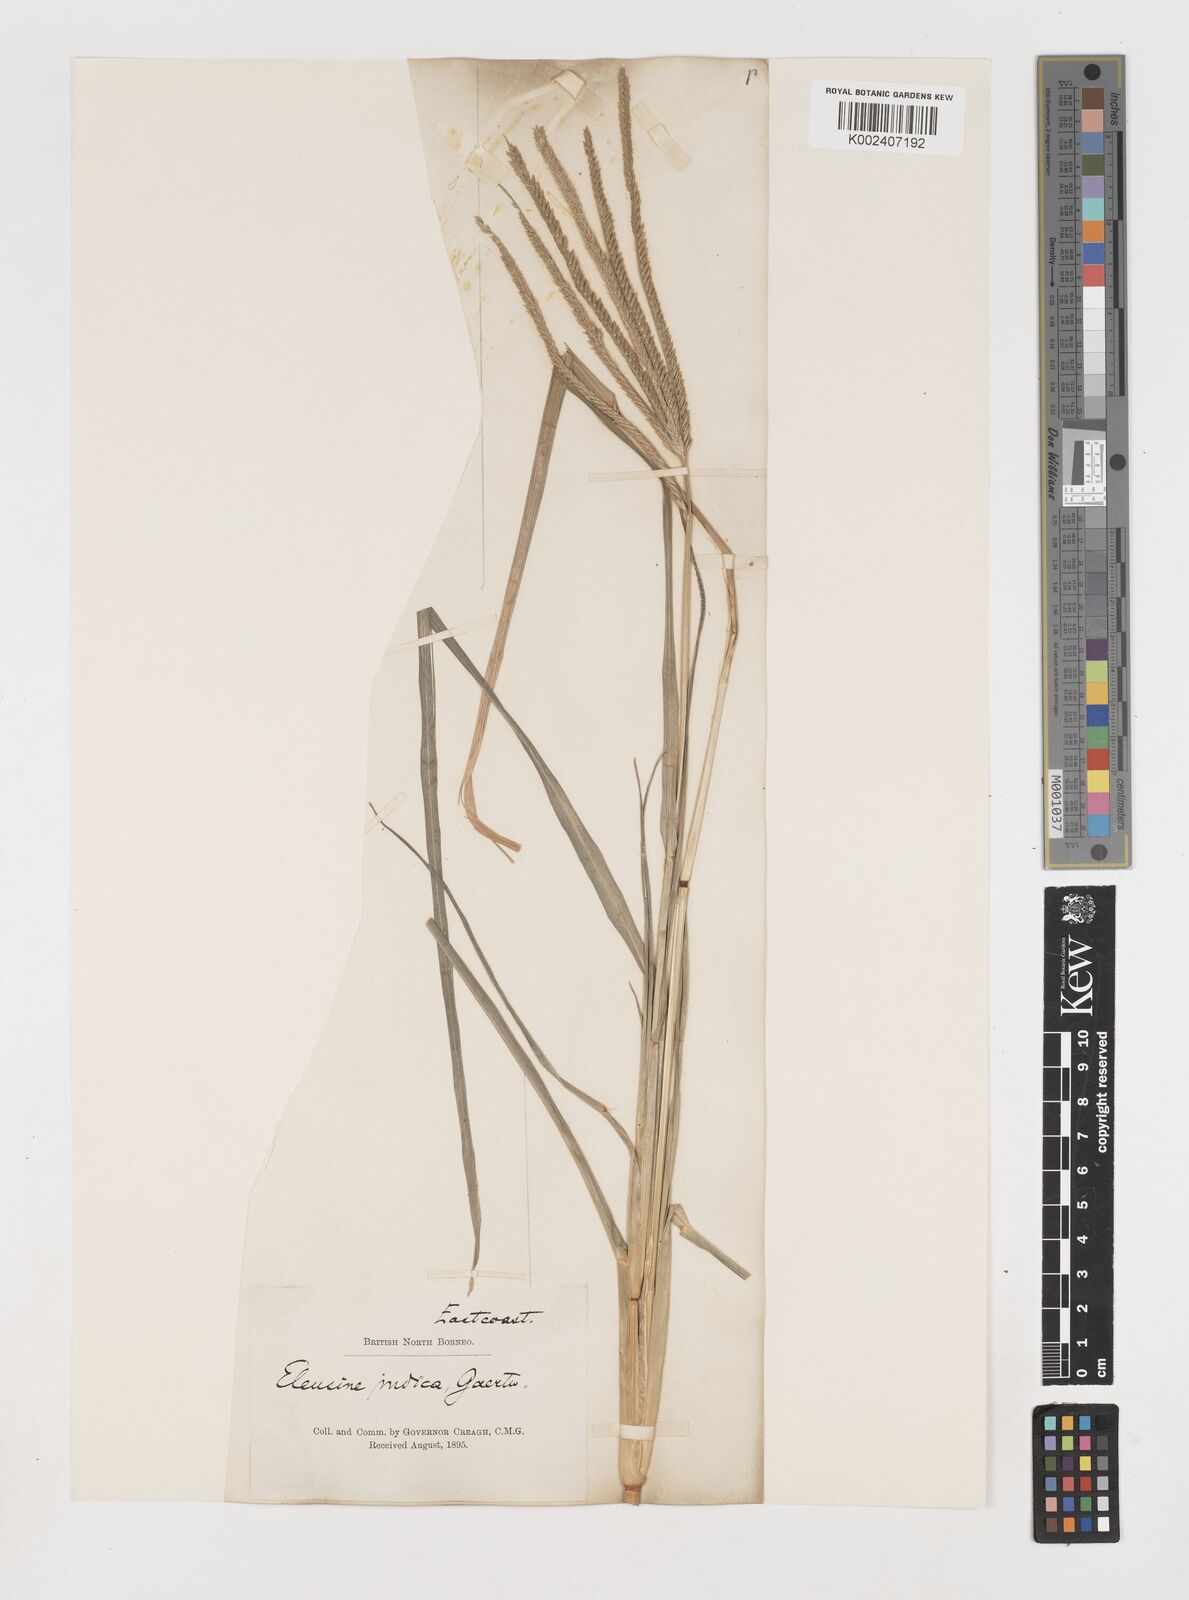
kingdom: Plantae
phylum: Tracheophyta
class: Liliopsida
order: Poales
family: Poaceae
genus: Eleusine
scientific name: Eleusine indica
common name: Yard-grass
